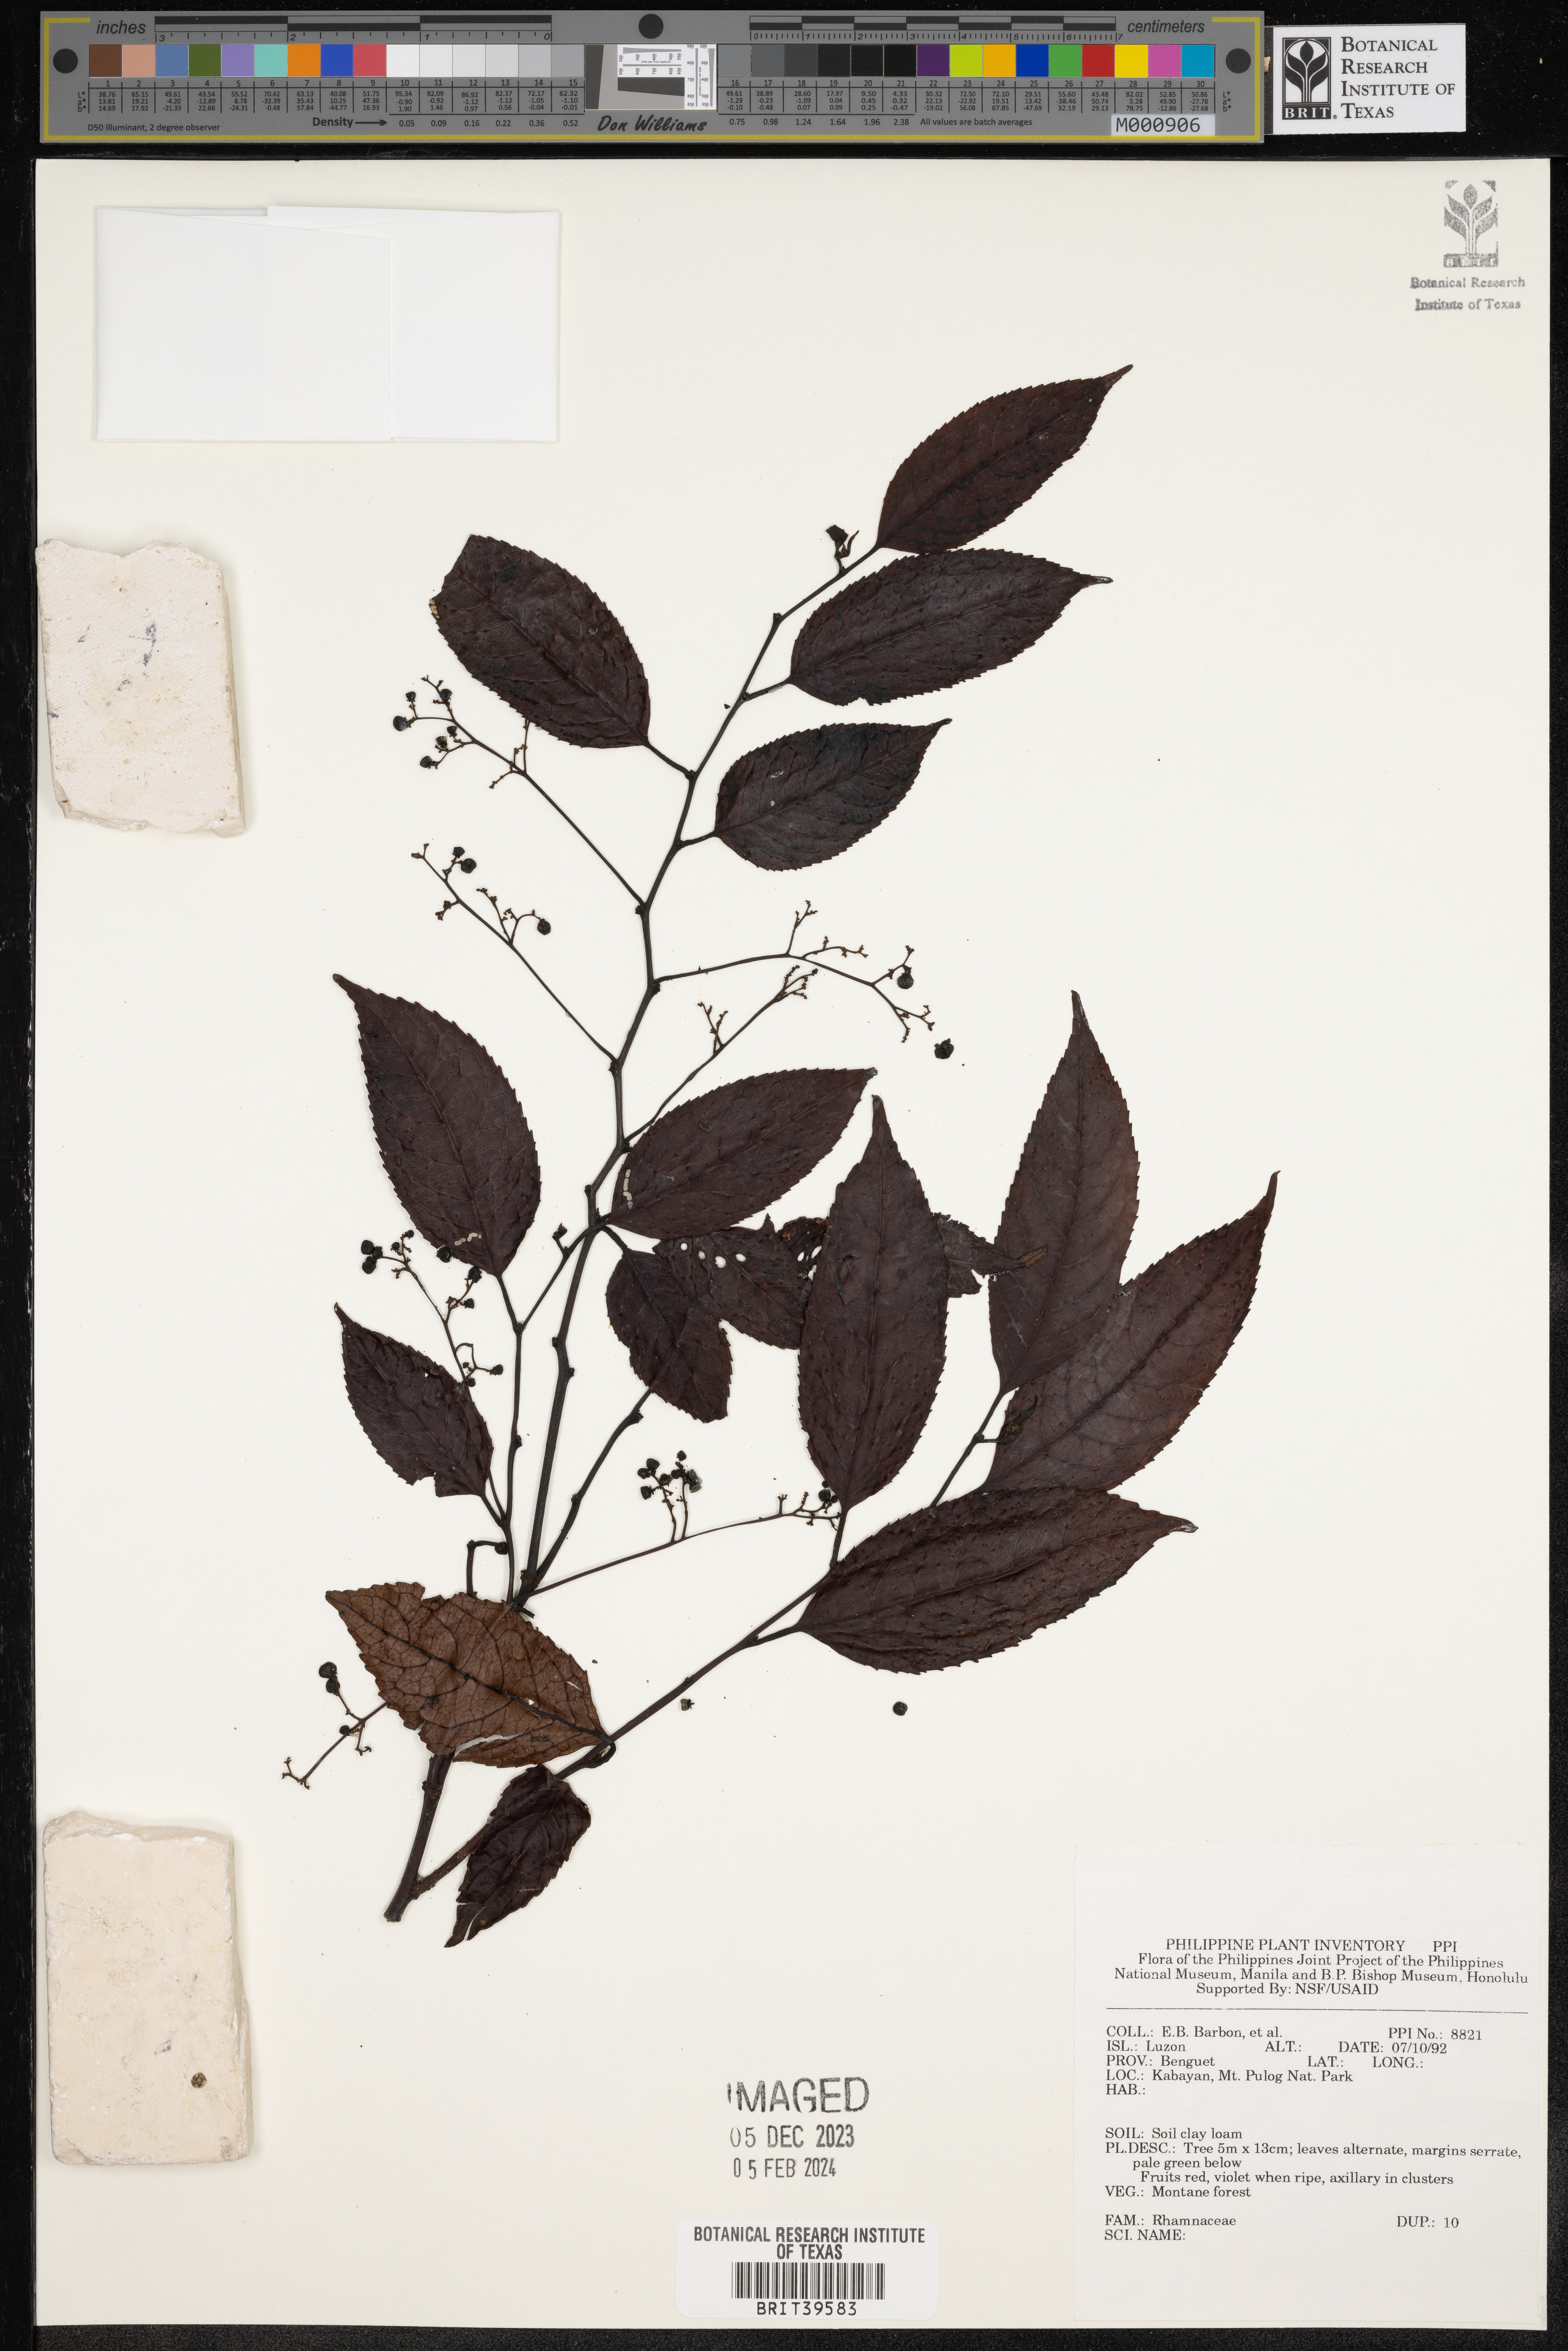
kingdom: Plantae
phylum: Tracheophyta
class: Magnoliopsida
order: Rosales
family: Rhamnaceae
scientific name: Rhamnaceae
